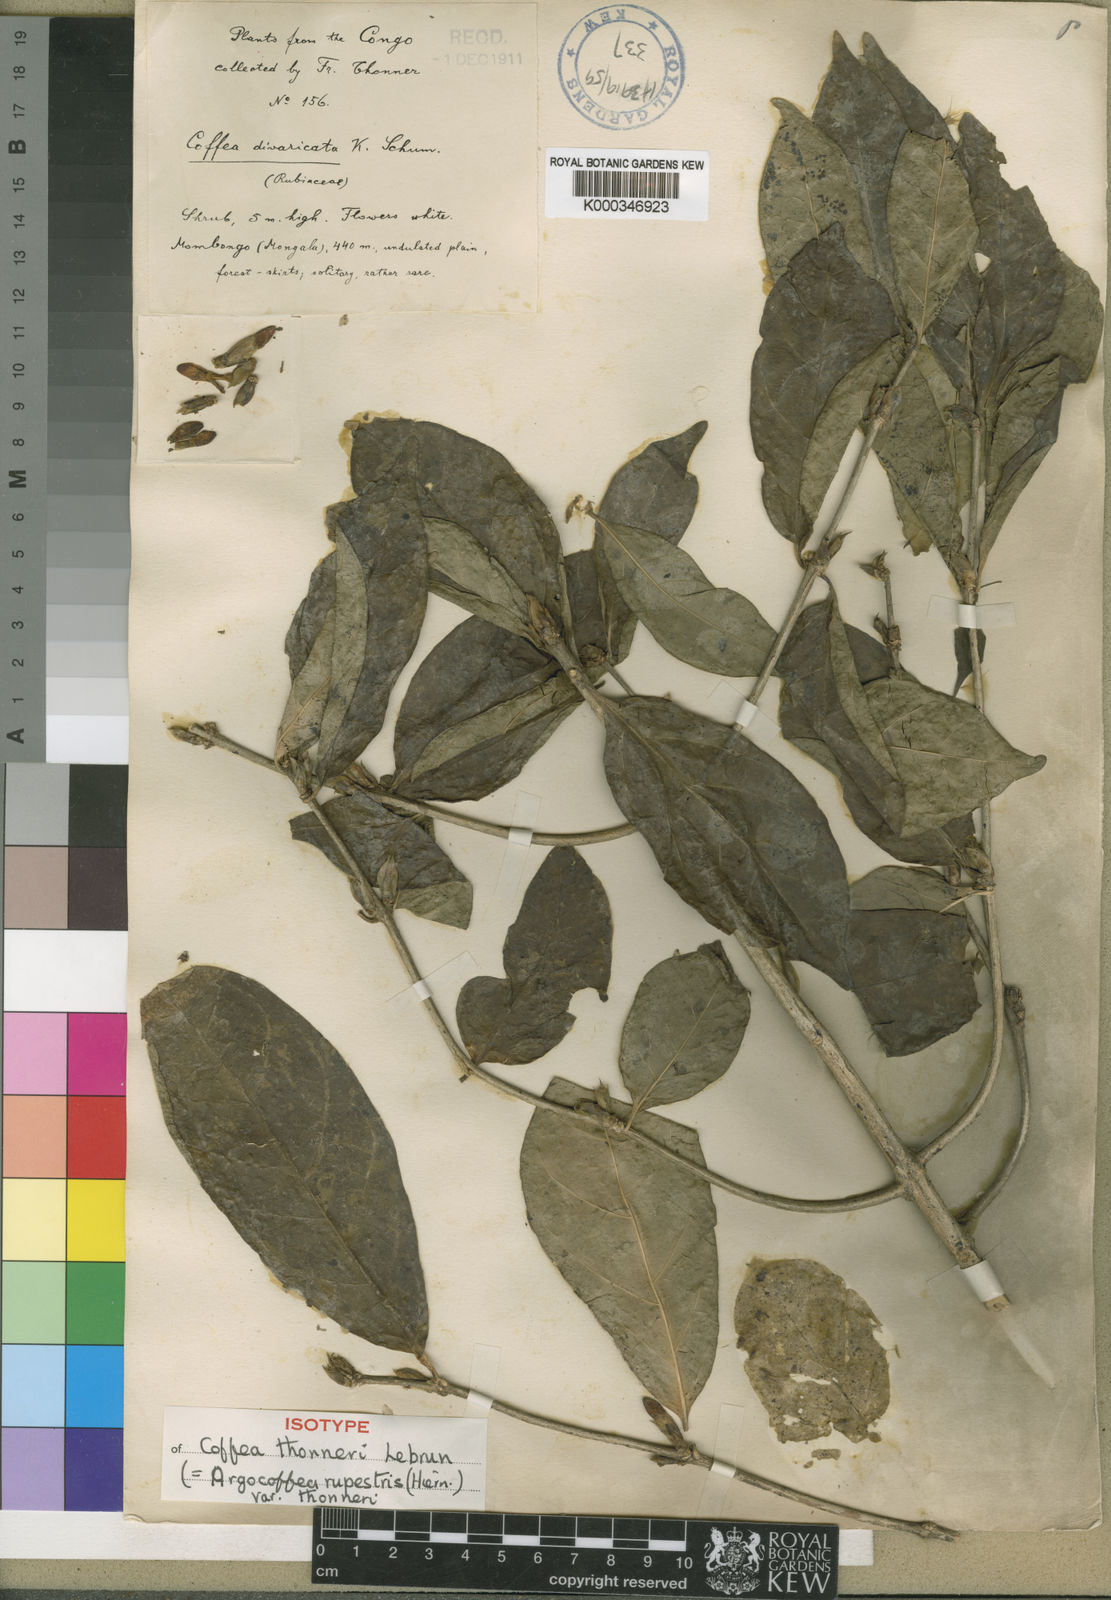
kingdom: Plantae
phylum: Tracheophyta
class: Magnoliopsida
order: Gentianales
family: Rubiaceae
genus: Argocoffeopsis
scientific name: Argocoffeopsis rupestris
